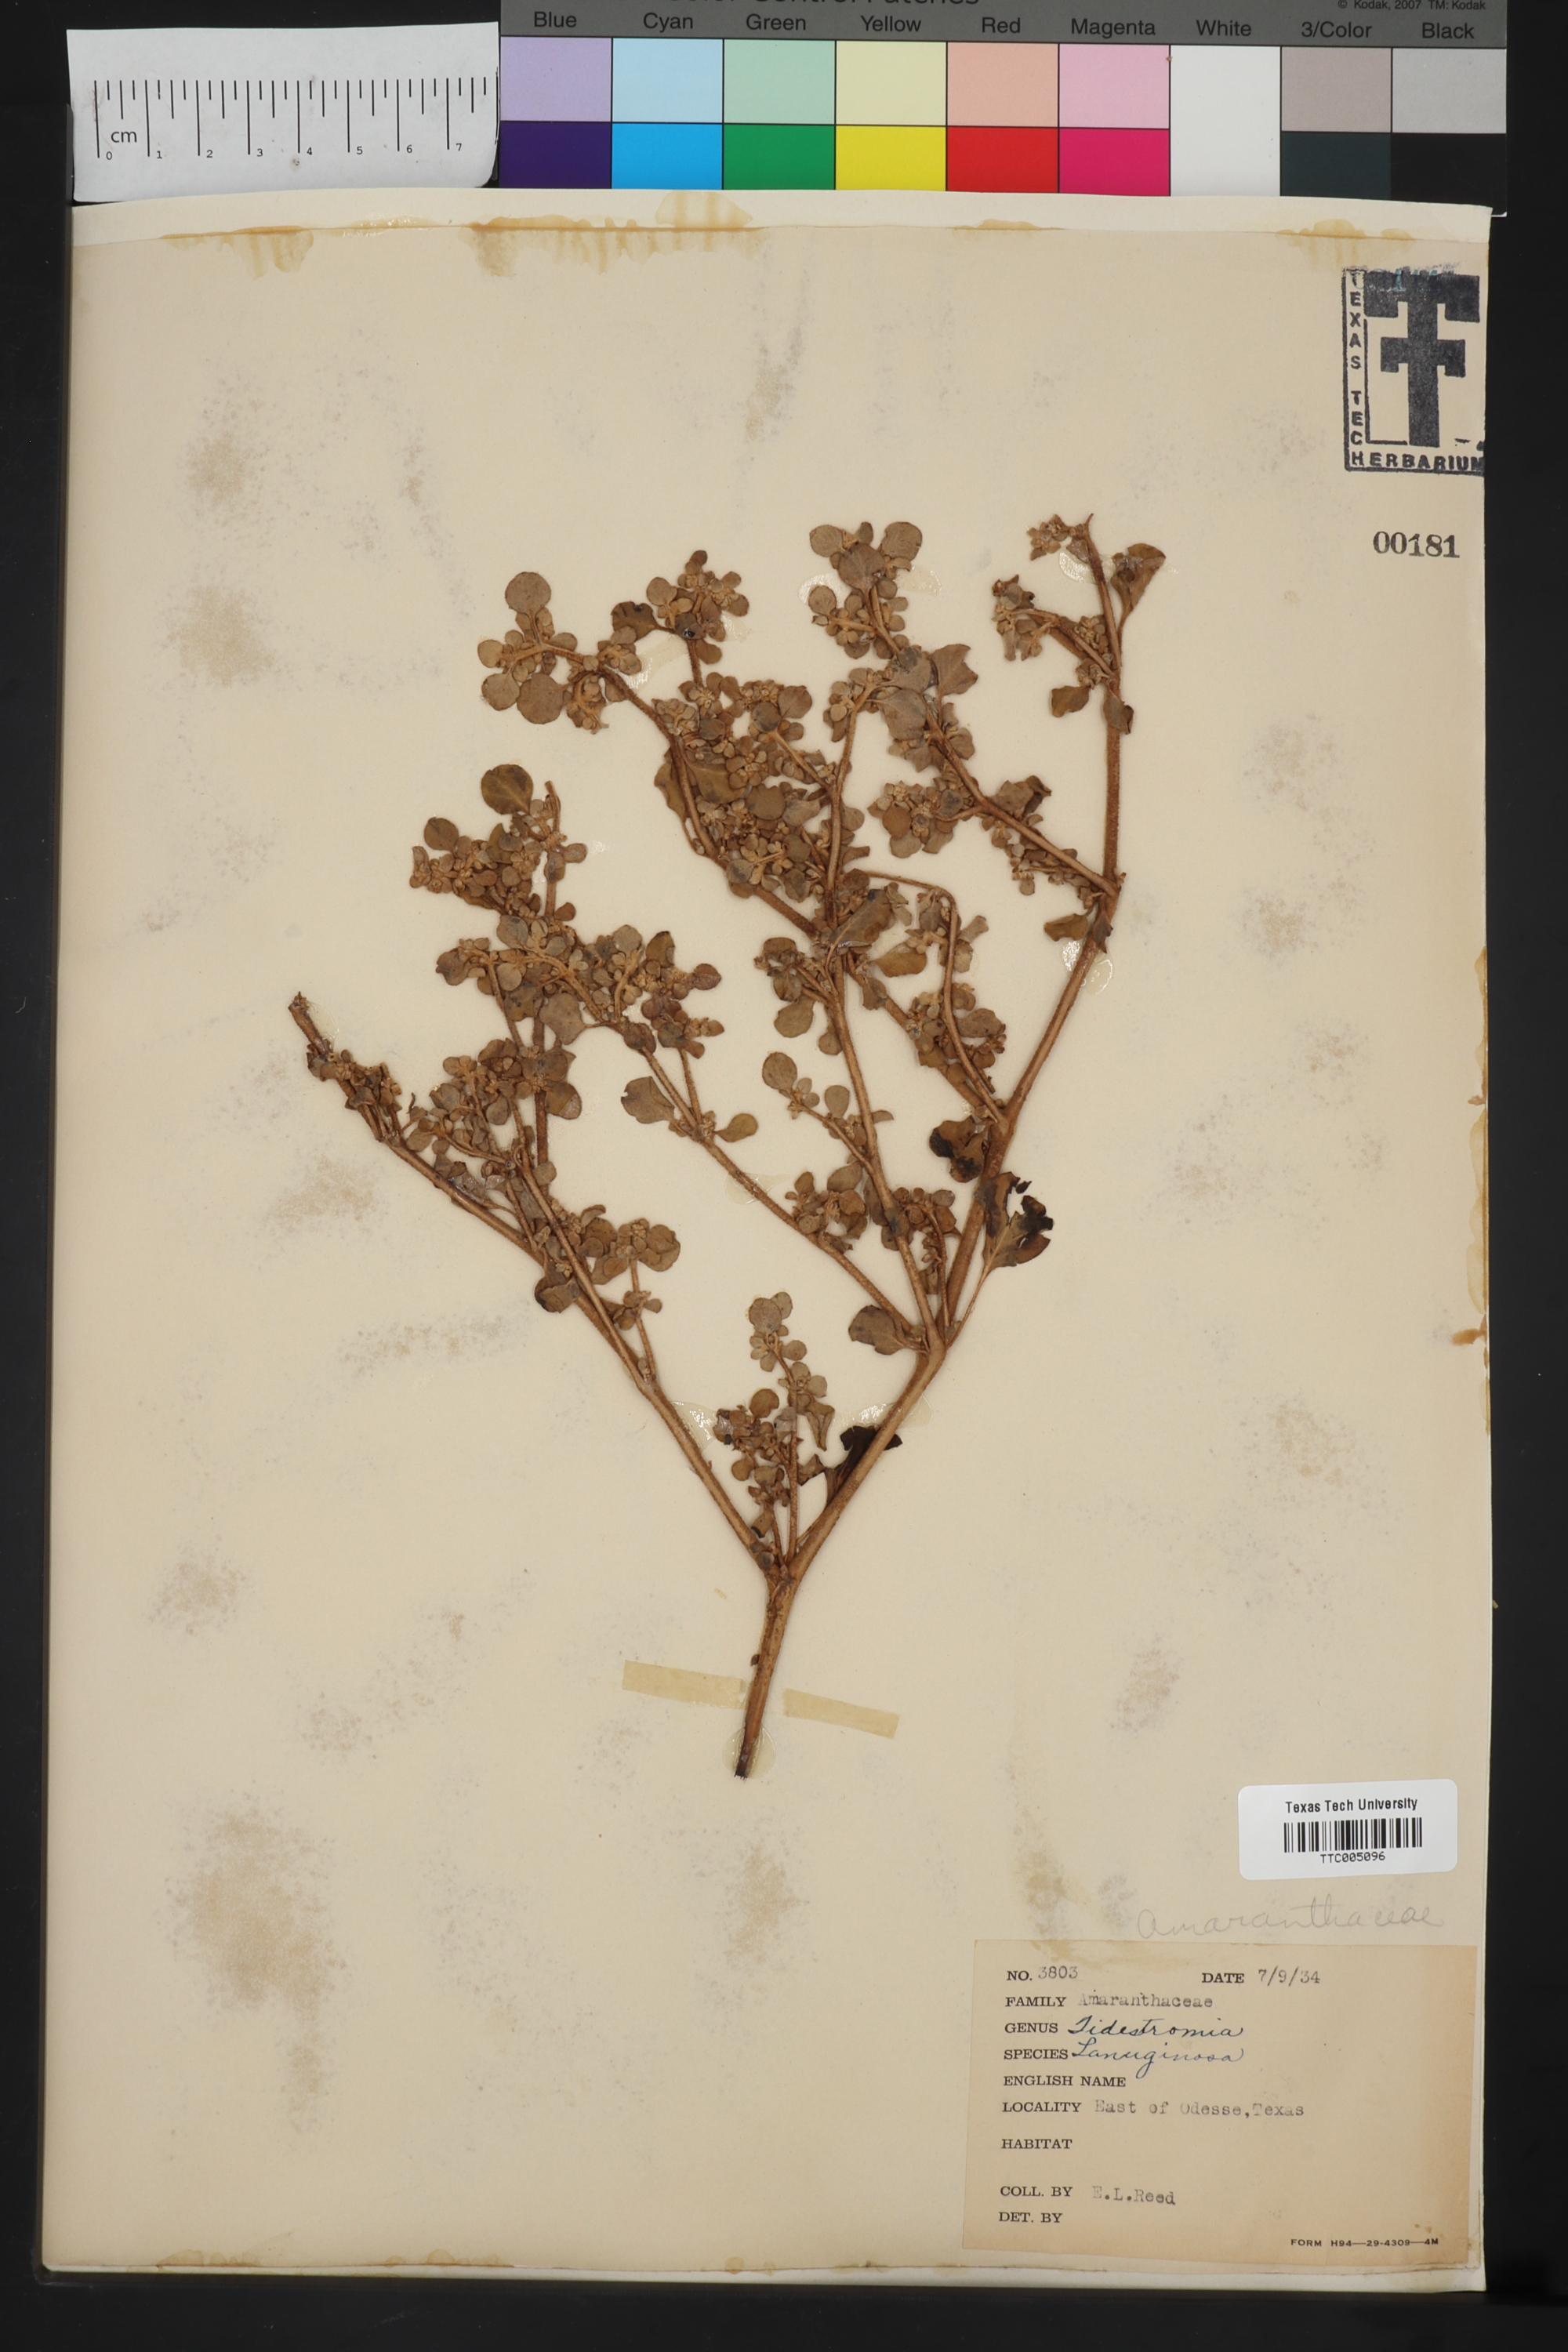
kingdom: Plantae
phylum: Tracheophyta
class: Magnoliopsida
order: Caryophyllales
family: Amaranthaceae
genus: Tidestromia
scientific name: Tidestromia lanuginosa
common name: Woolly tidestromia
